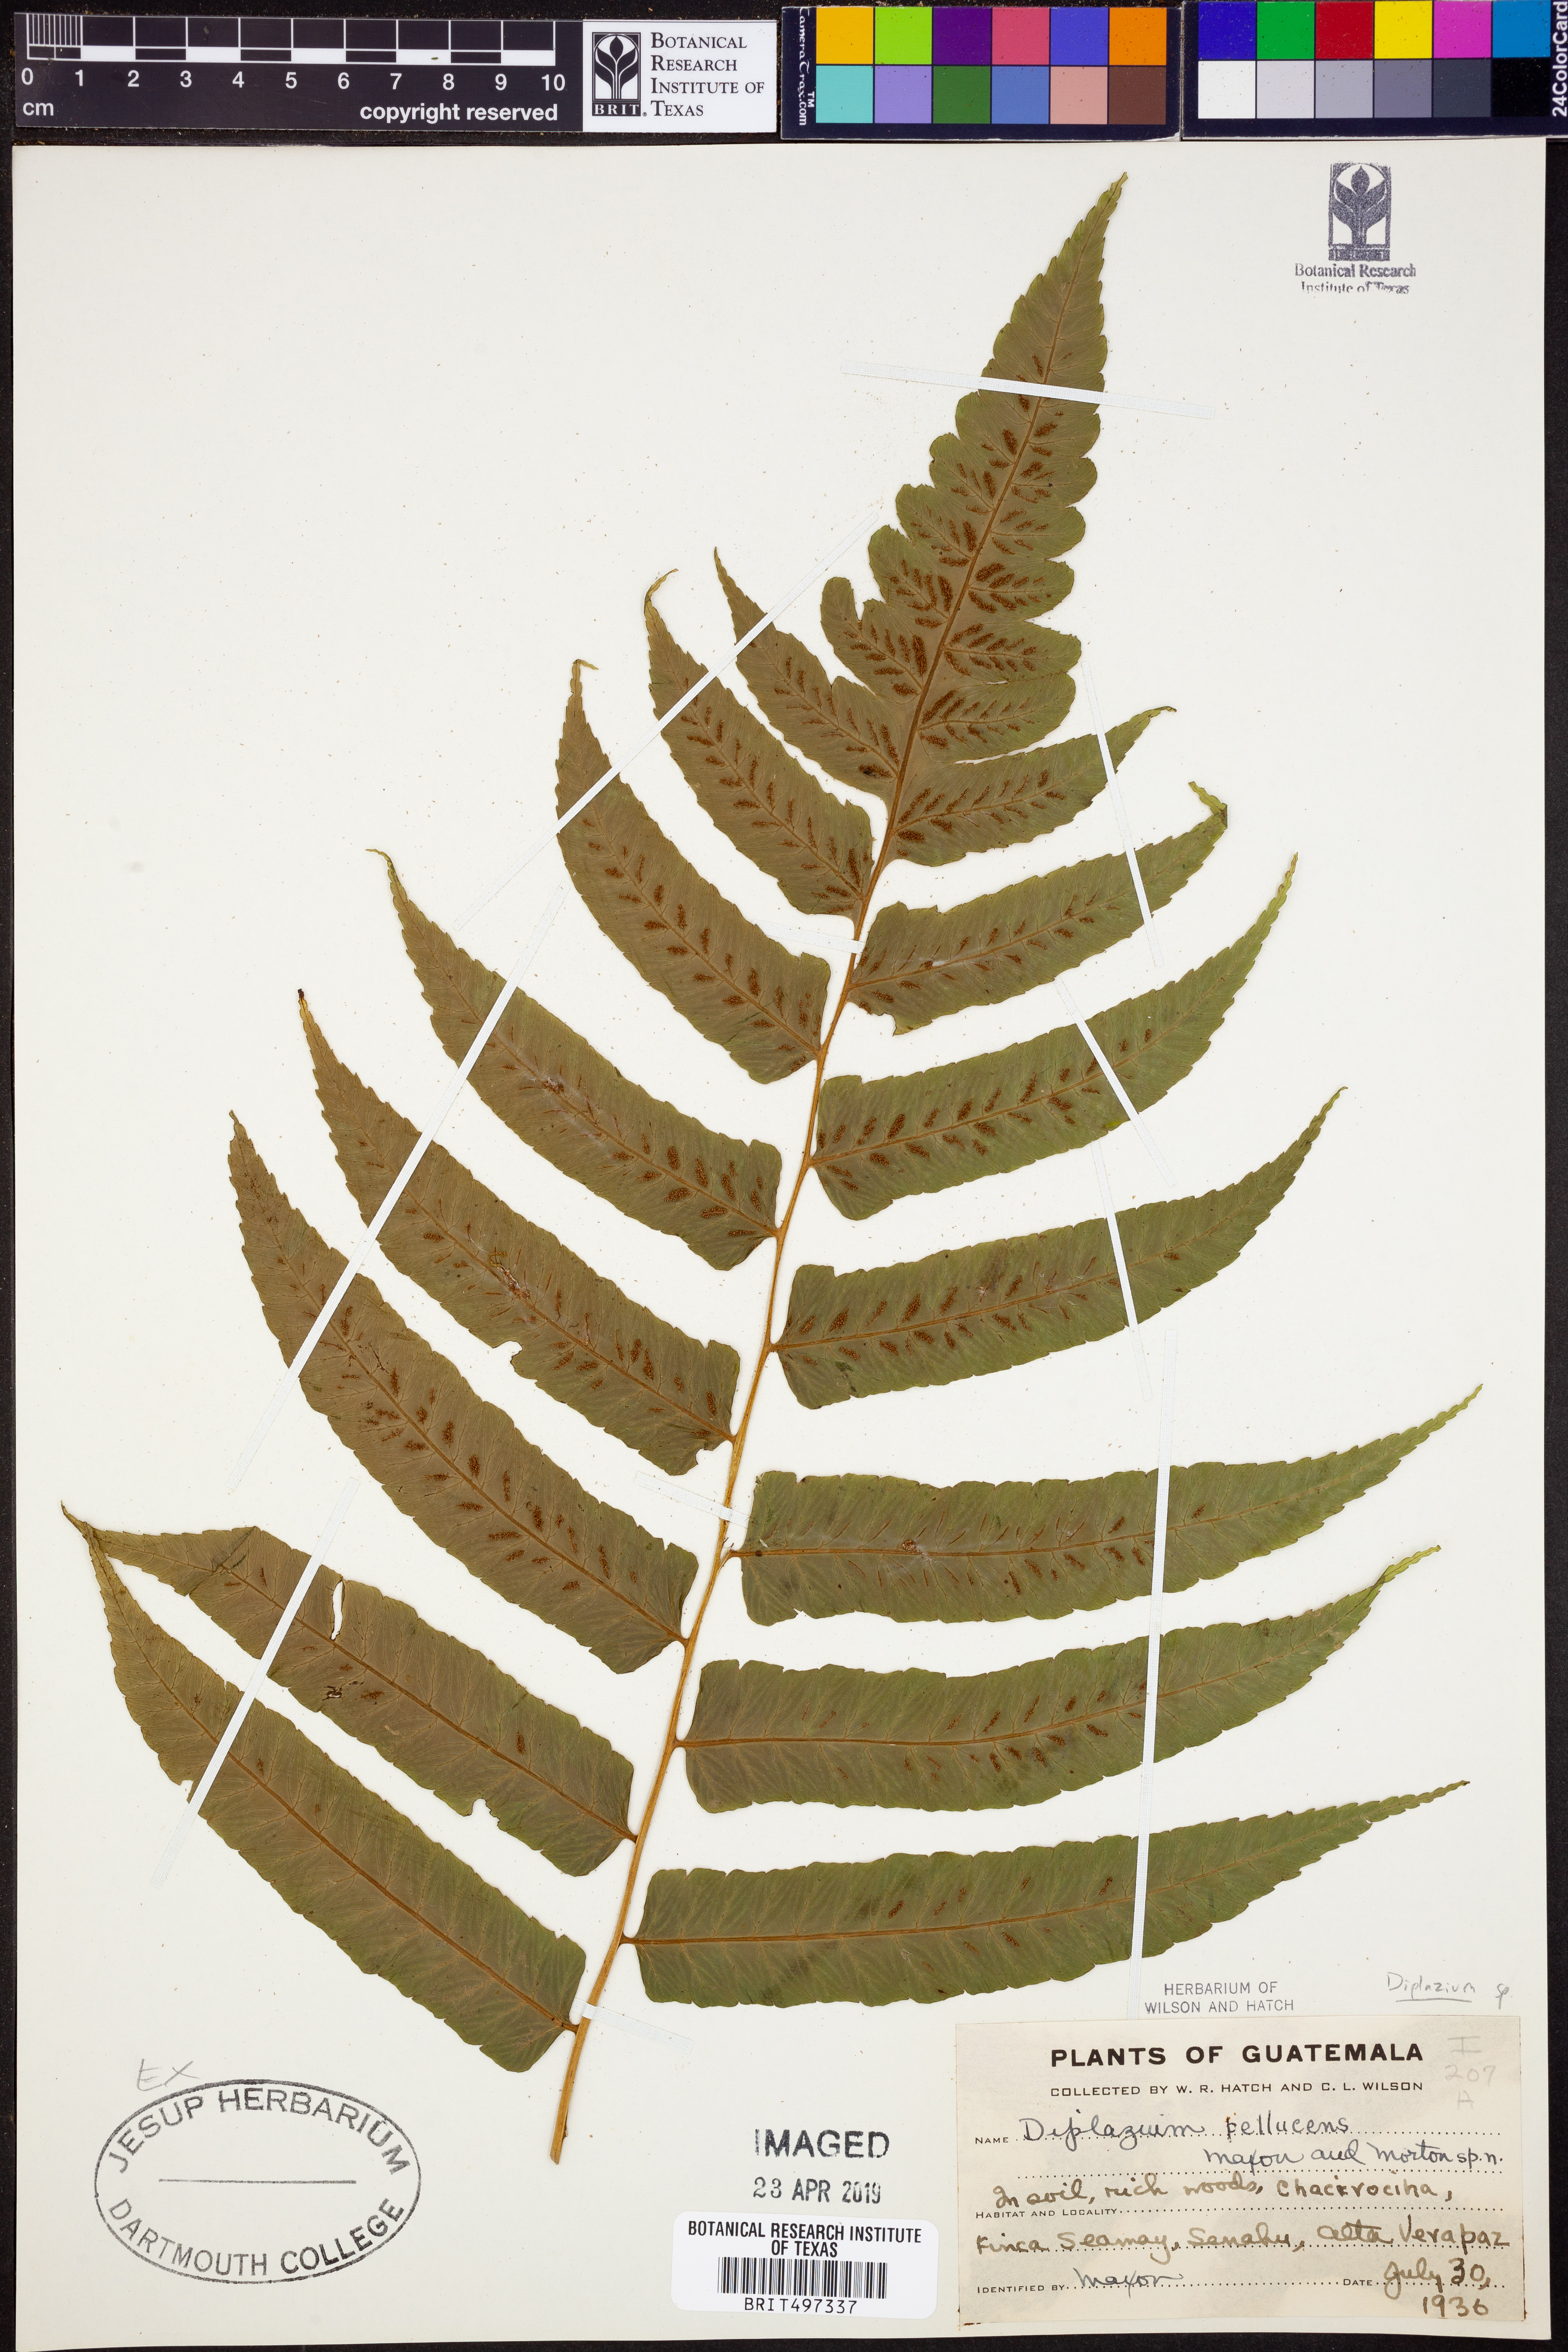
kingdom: Plantae
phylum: Tracheophyta
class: Polypodiopsida
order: Polypodiales
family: Athyriaceae
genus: Diplazium
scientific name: Diplazium
